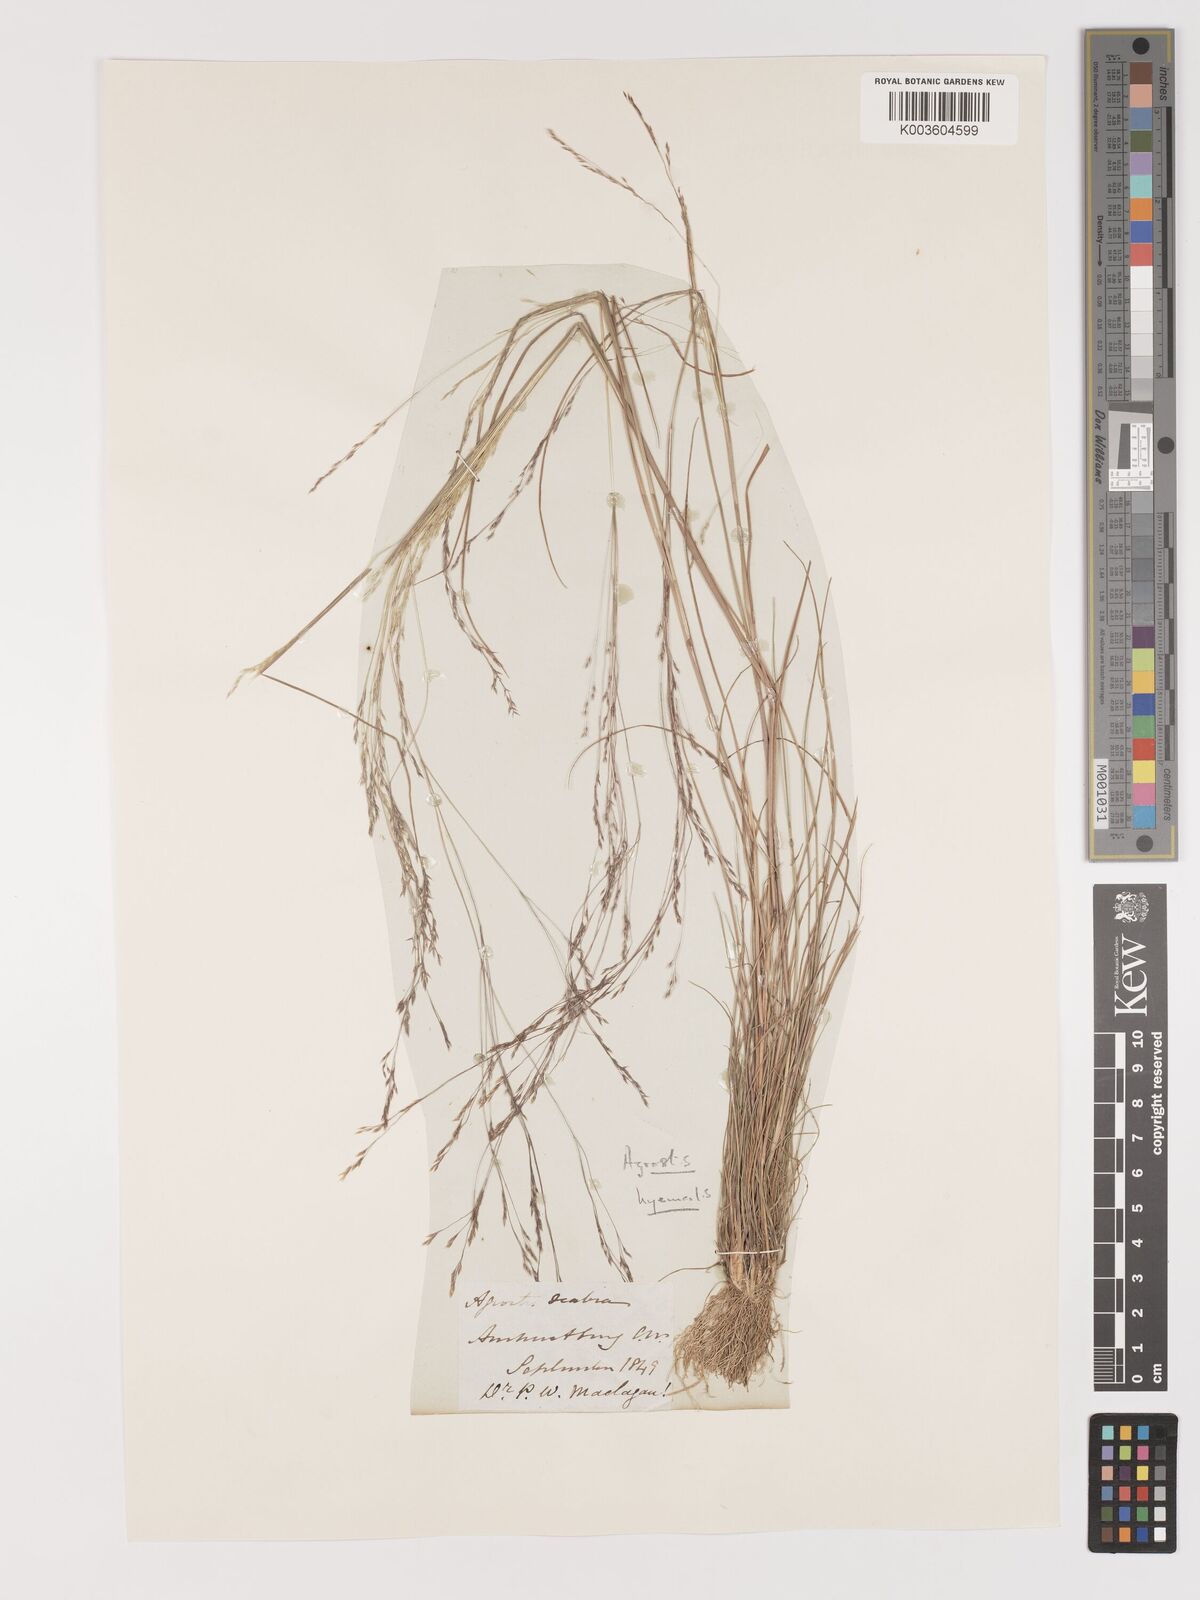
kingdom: Plantae
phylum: Tracheophyta
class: Liliopsida
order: Poales
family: Poaceae
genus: Agrostis
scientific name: Agrostis hyemalis
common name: Small bent
